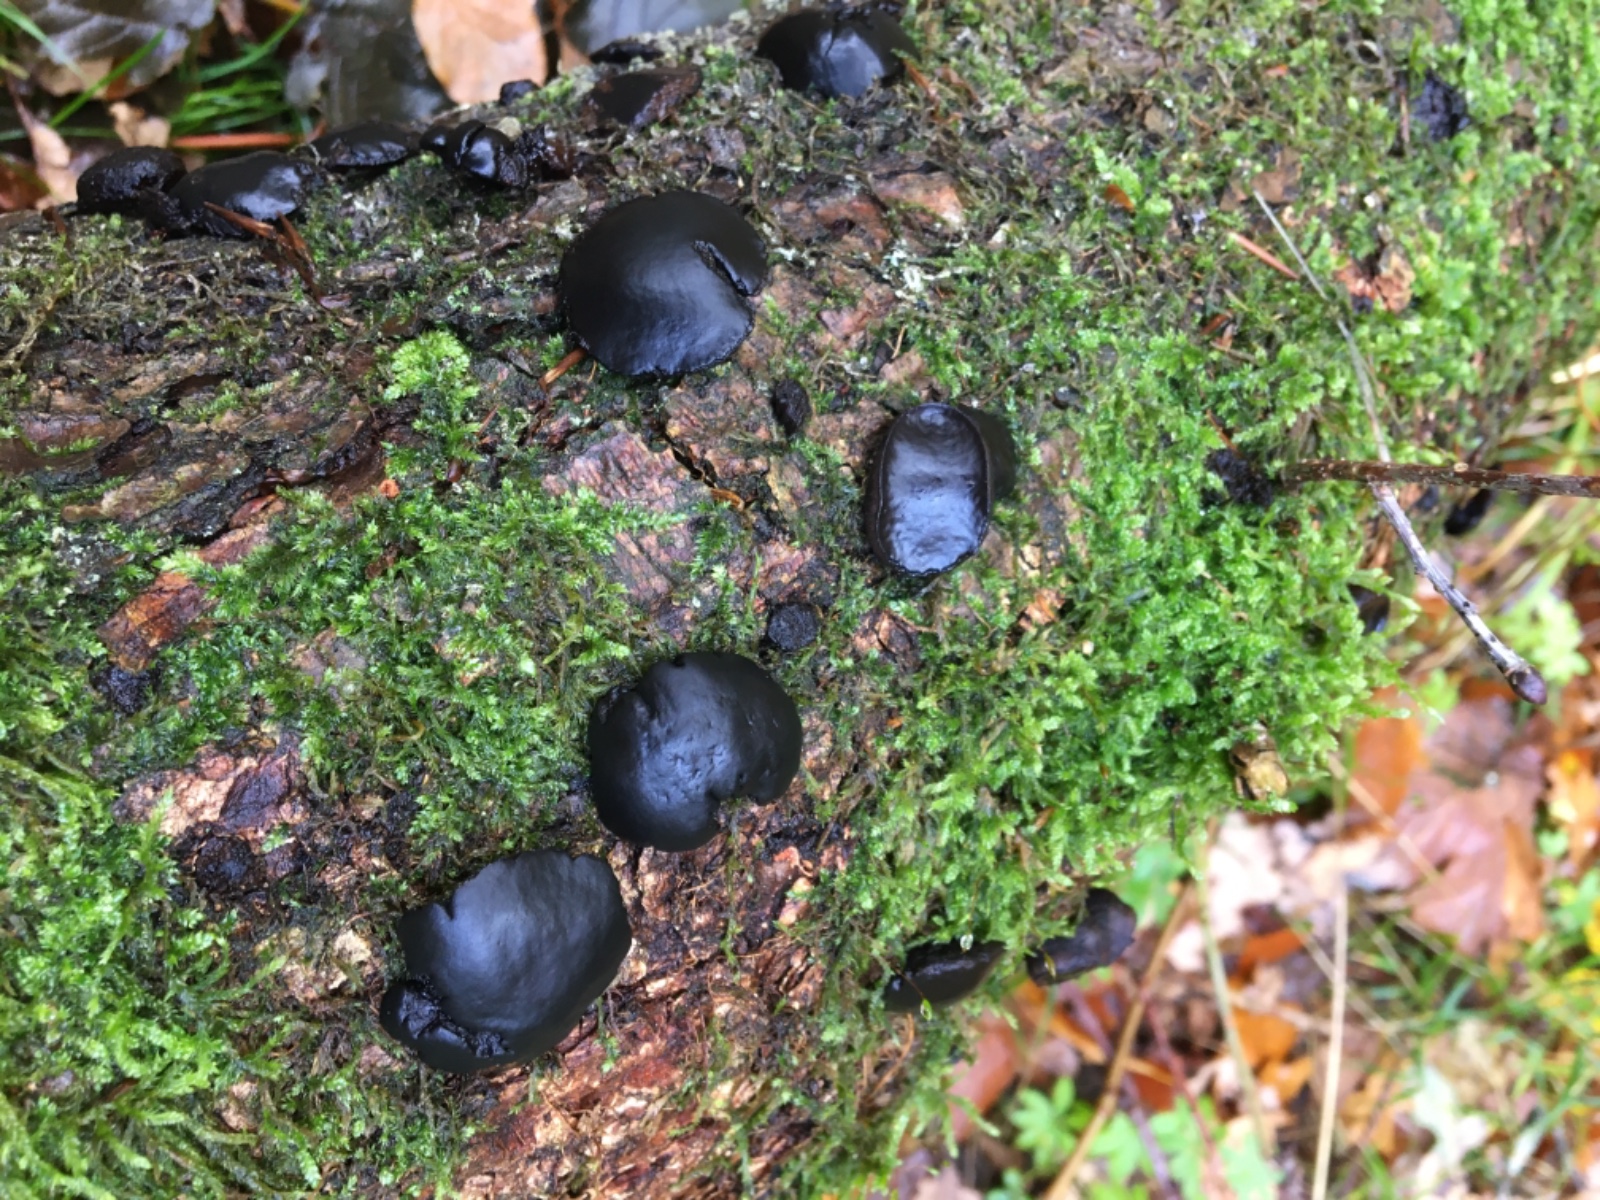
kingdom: Fungi
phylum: Ascomycota
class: Leotiomycetes
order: Phacidiales
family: Phacidiaceae
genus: Bulgaria
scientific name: Bulgaria inquinans
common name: afsmittende topsvamp
